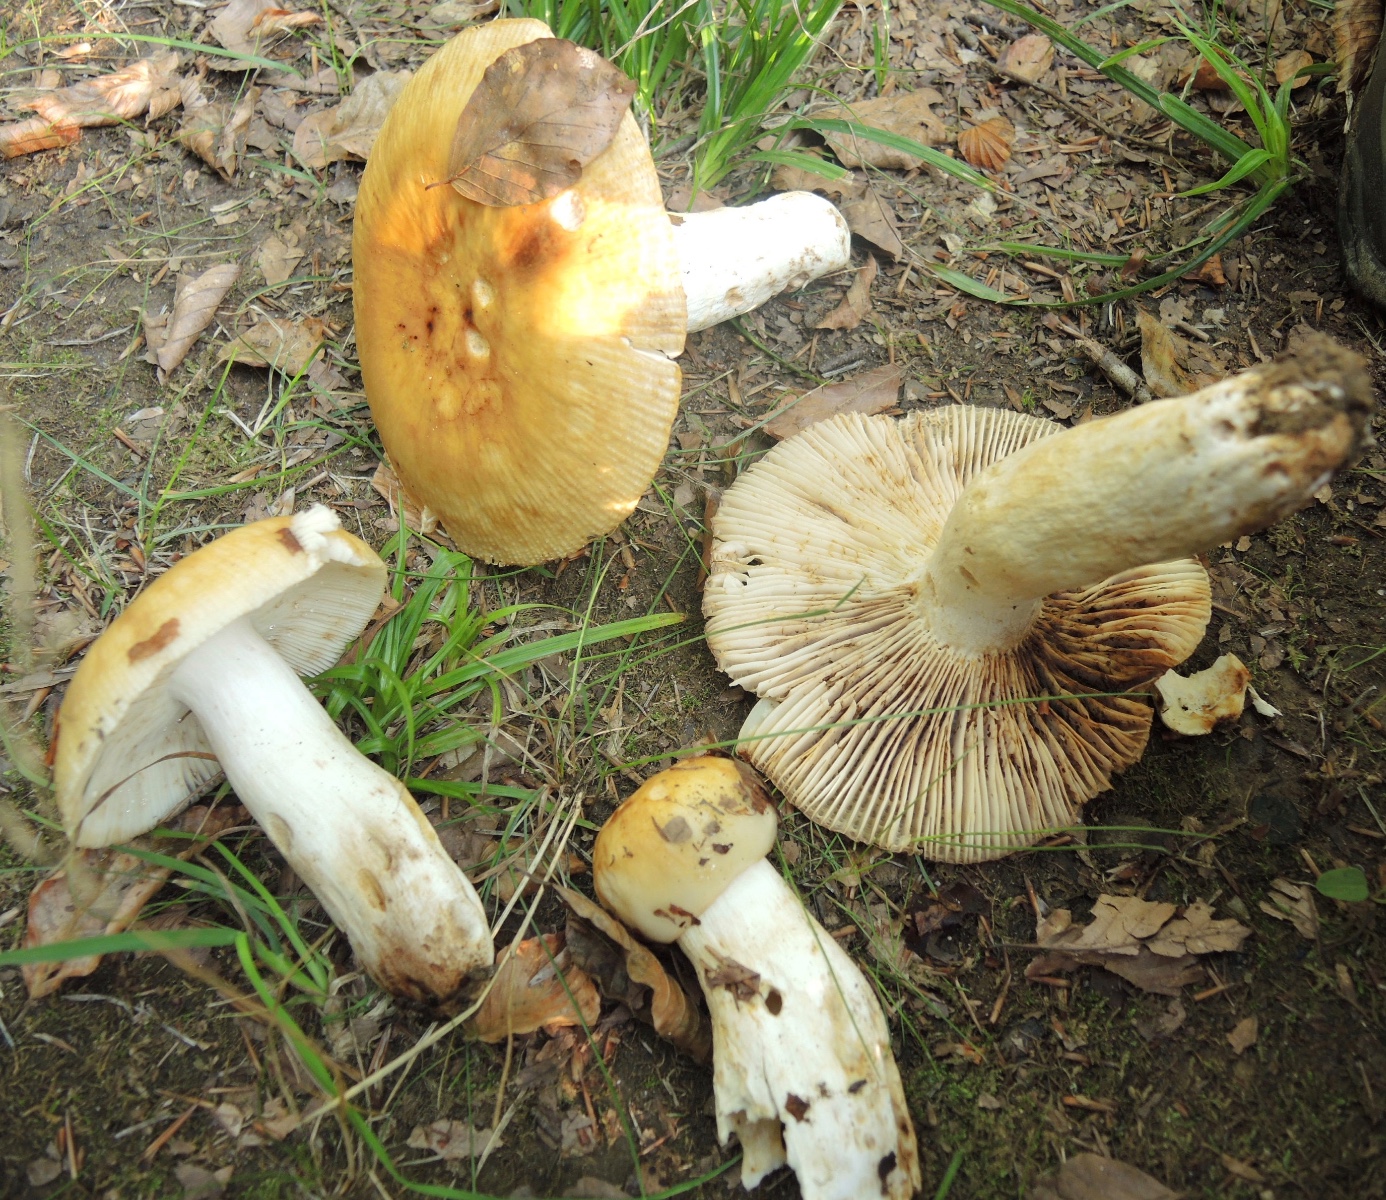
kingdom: Fungi
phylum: Basidiomycota
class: Agaricomycetes
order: Russulales
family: Russulaceae
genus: Russula
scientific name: Russula illota
